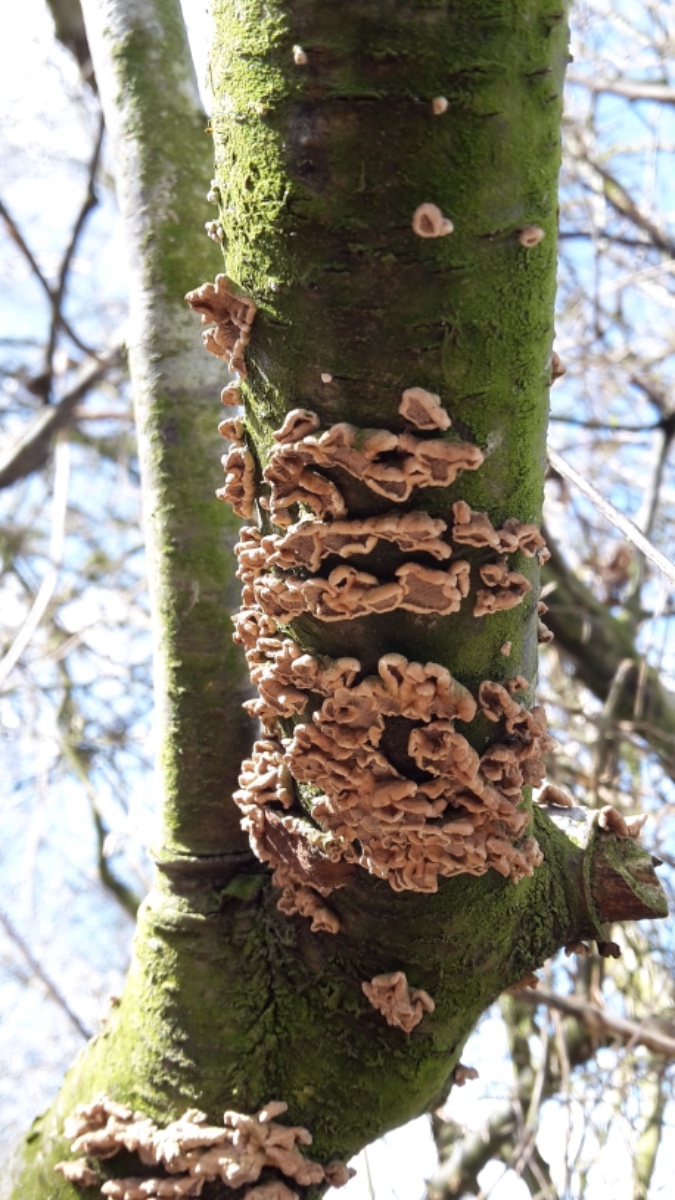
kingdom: Fungi
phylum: Basidiomycota
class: Agaricomycetes
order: Amylocorticiales
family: Amylocorticiaceae
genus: Plicaturopsis
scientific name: Plicaturopsis crispa
